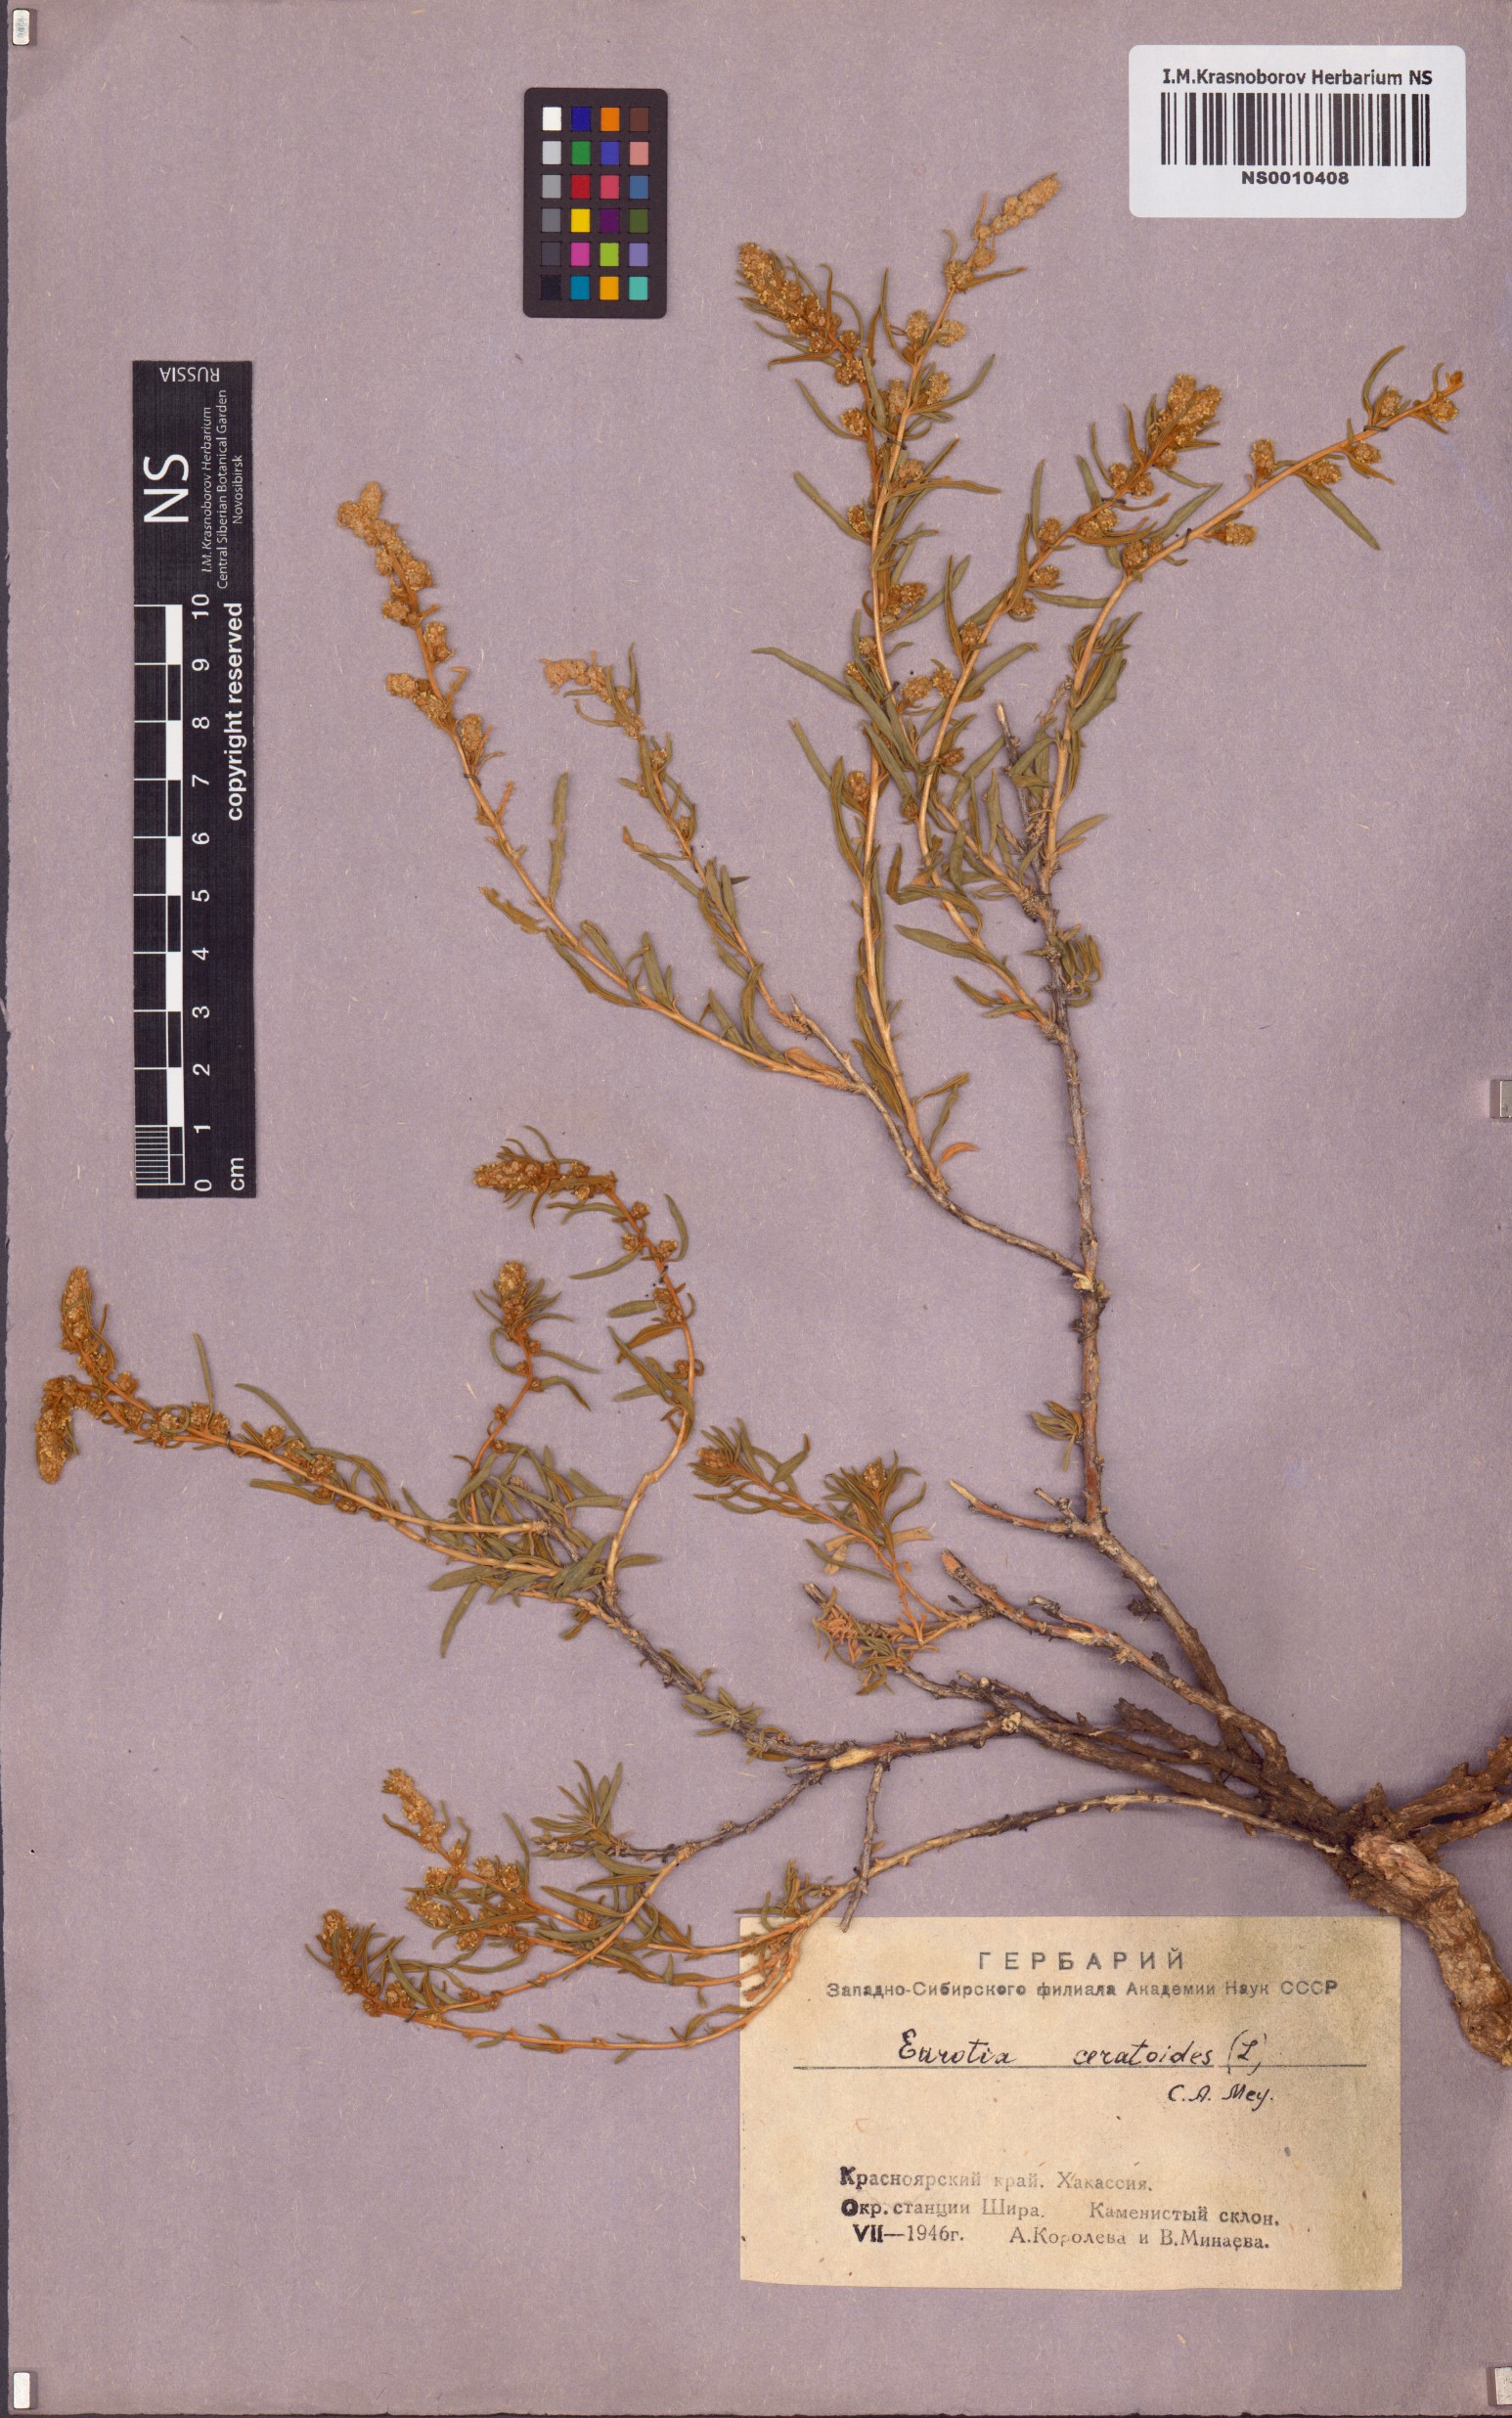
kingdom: Plantae
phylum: Tracheophyta
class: Magnoliopsida
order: Caryophyllales
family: Amaranthaceae
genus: Krascheninnikovia
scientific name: Krascheninnikovia ceratoides
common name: Pamirian winterfat
